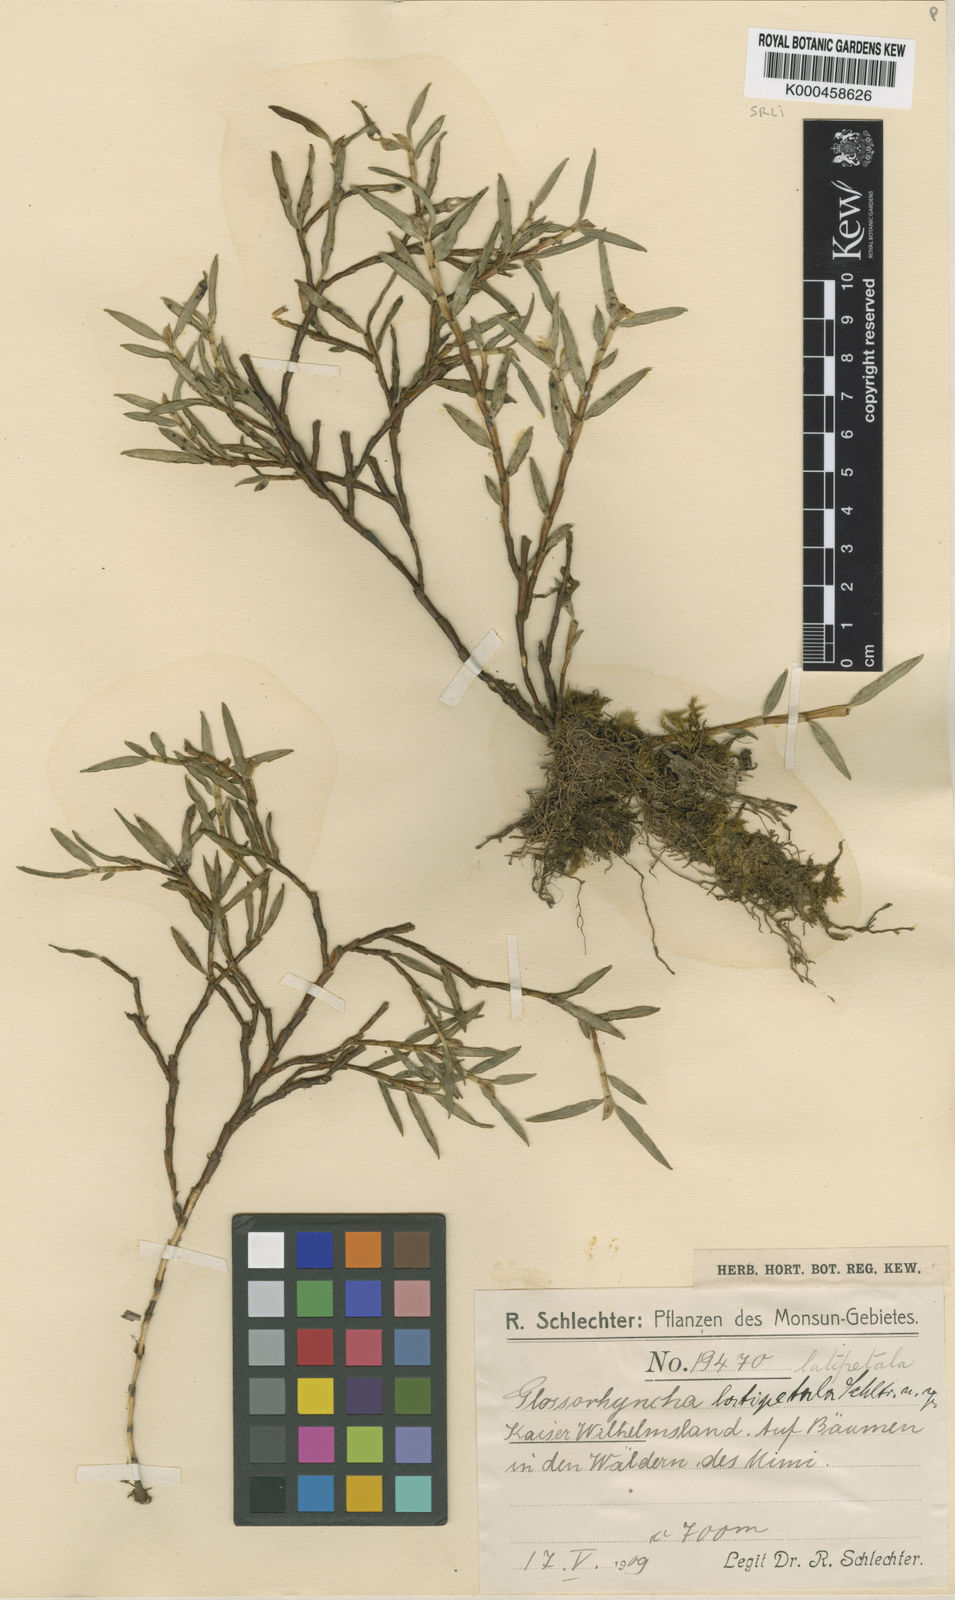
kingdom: Plantae
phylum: Tracheophyta
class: Liliopsida
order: Asparagales
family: Orchidaceae
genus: Glomera
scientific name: Glomera latipetala
